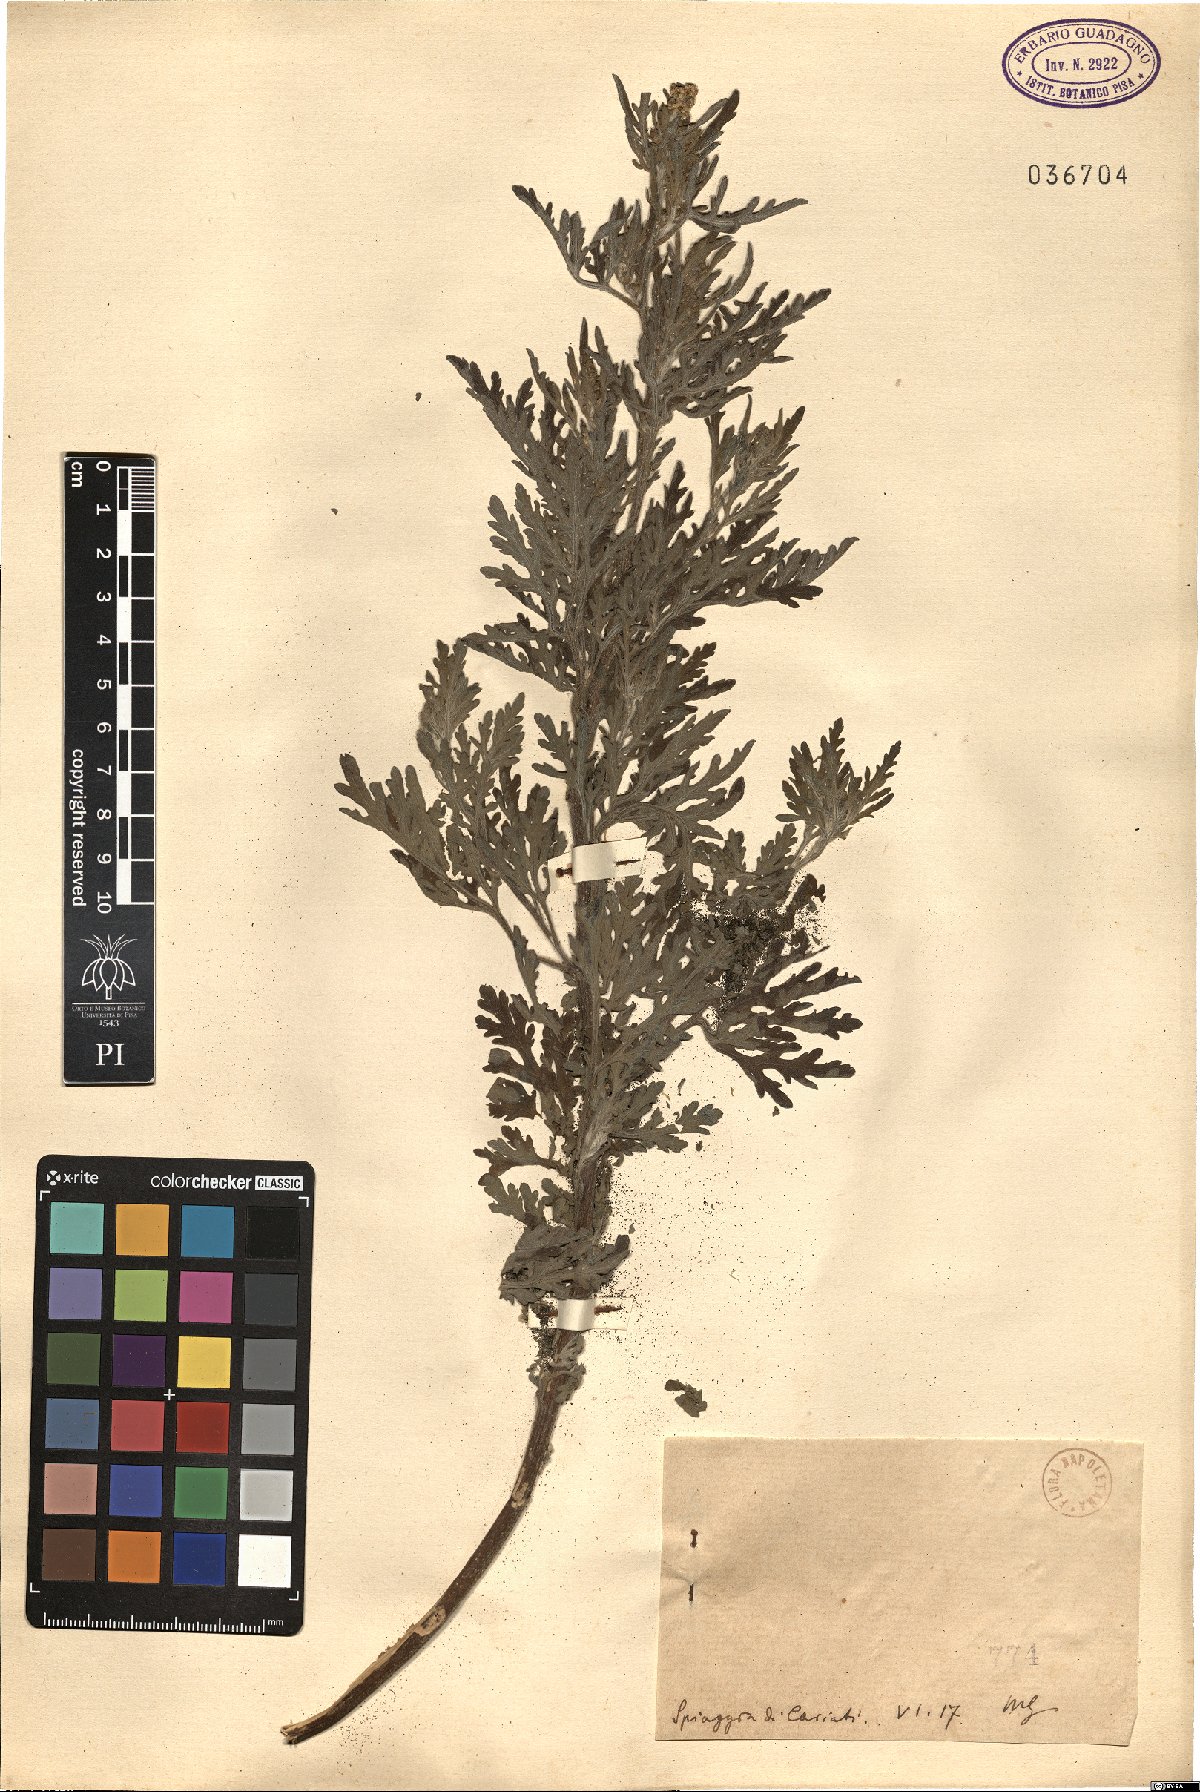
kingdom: Plantae
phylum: Tracheophyta
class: Magnoliopsida
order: Asterales
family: Asteraceae
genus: Ambrosia
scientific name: Ambrosia
